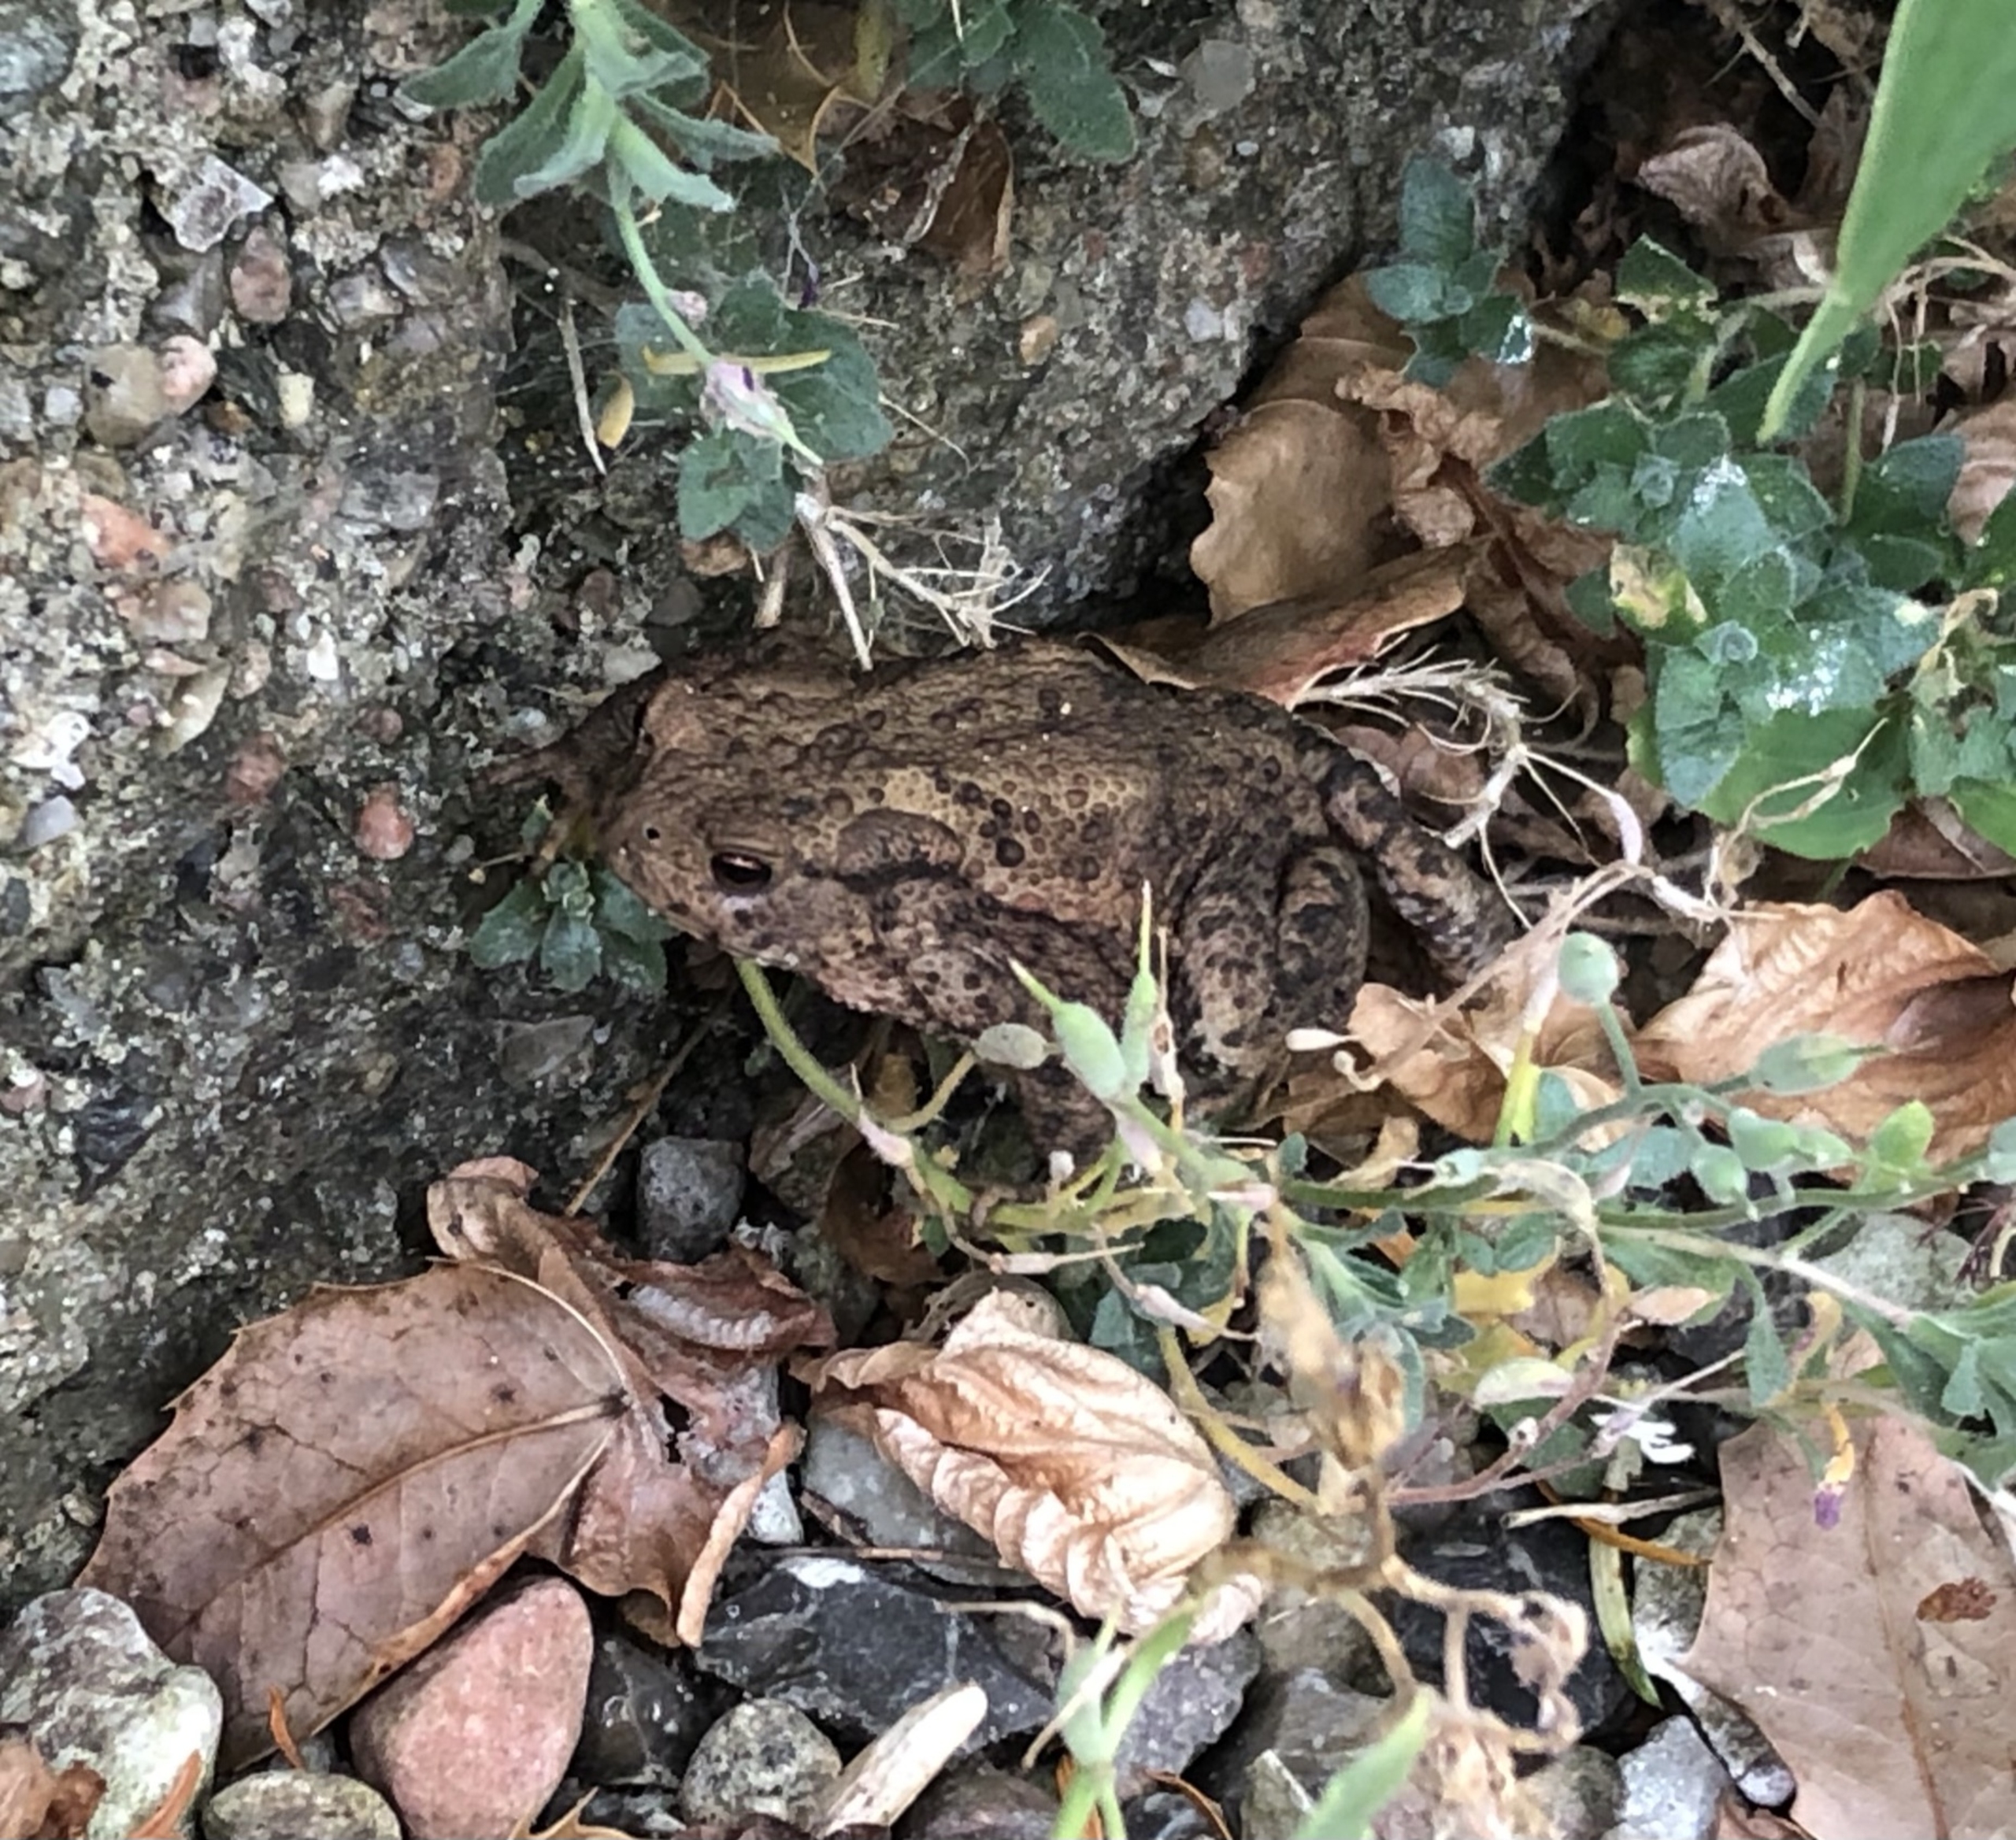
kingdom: Animalia
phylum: Chordata
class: Amphibia
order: Anura
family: Bufonidae
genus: Bufo
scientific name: Bufo bufo
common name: Skrubtudse
